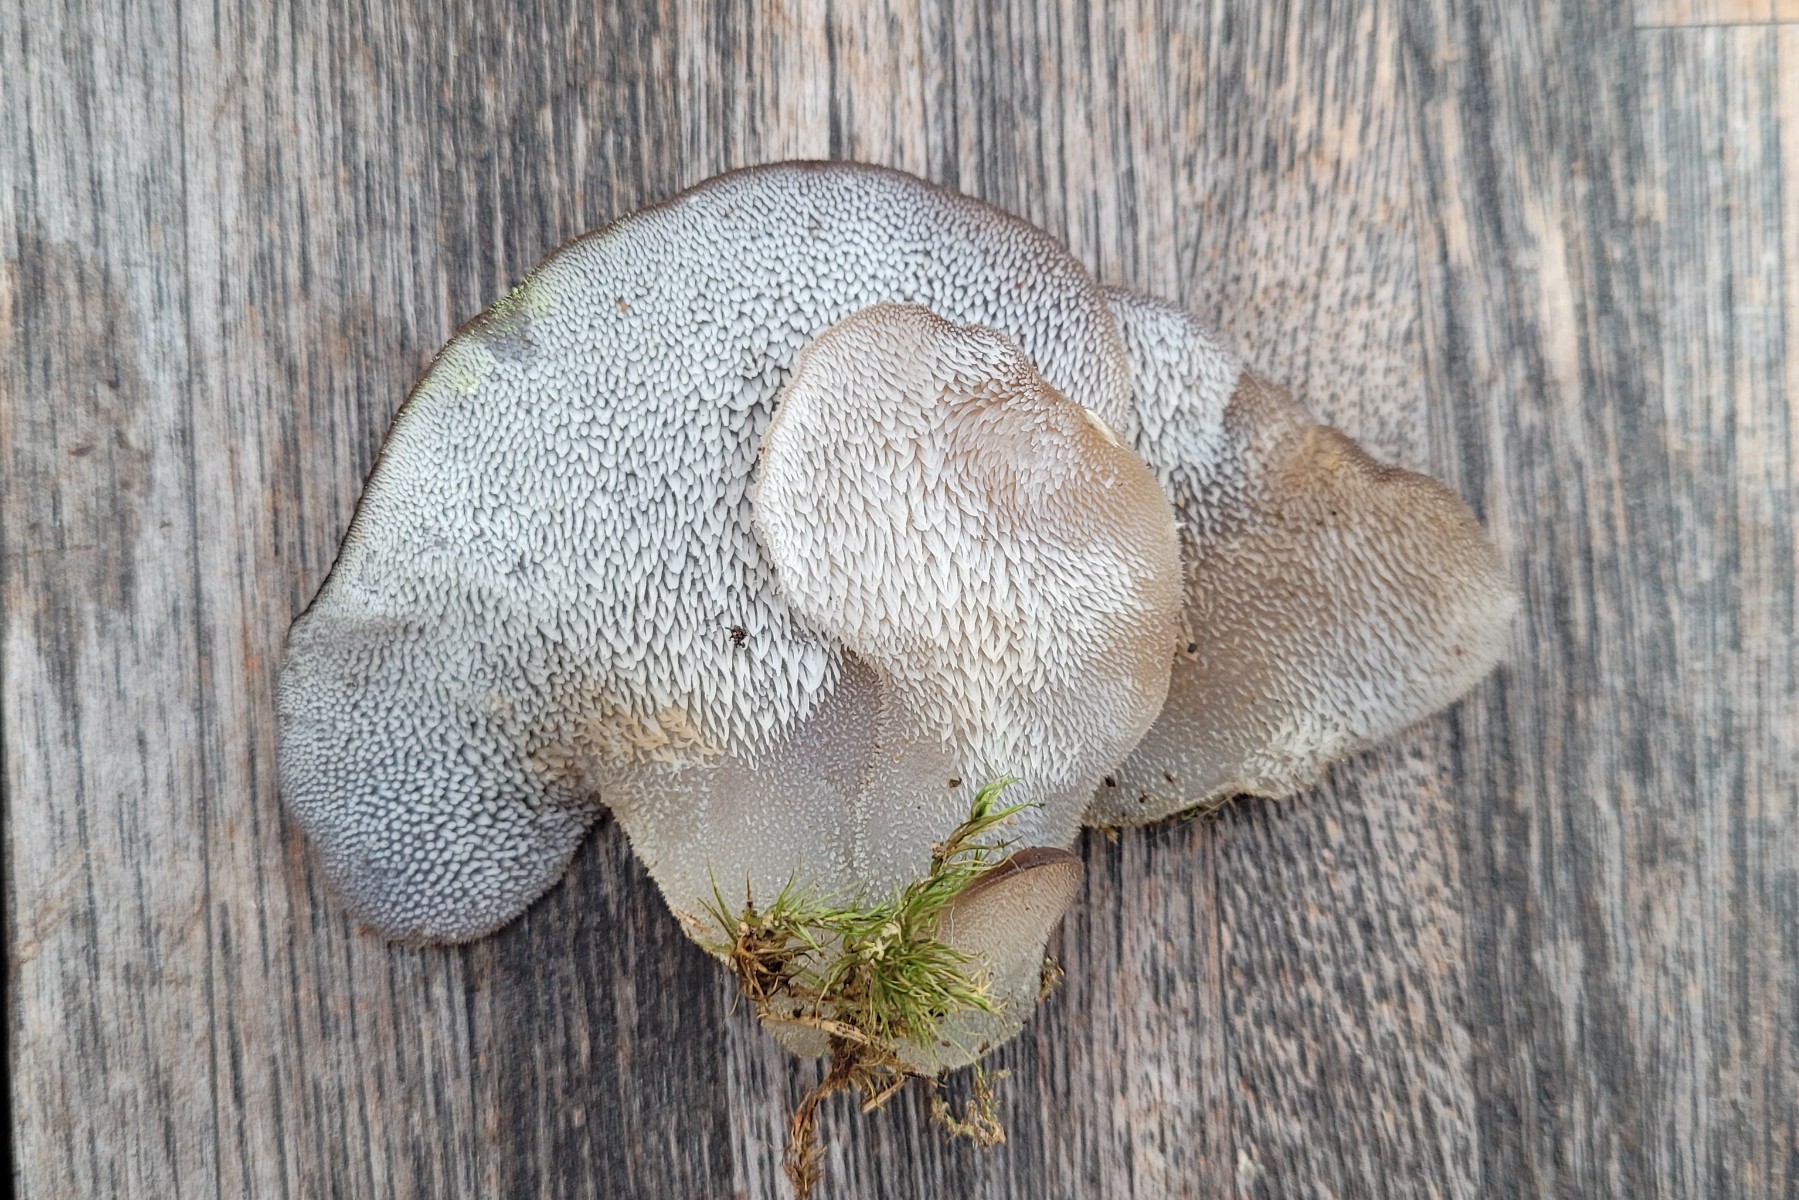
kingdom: Fungi
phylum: Basidiomycota
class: Agaricomycetes
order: Auriculariales
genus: Pseudohydnum
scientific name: Pseudohydnum gelatinosum
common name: bævretand
